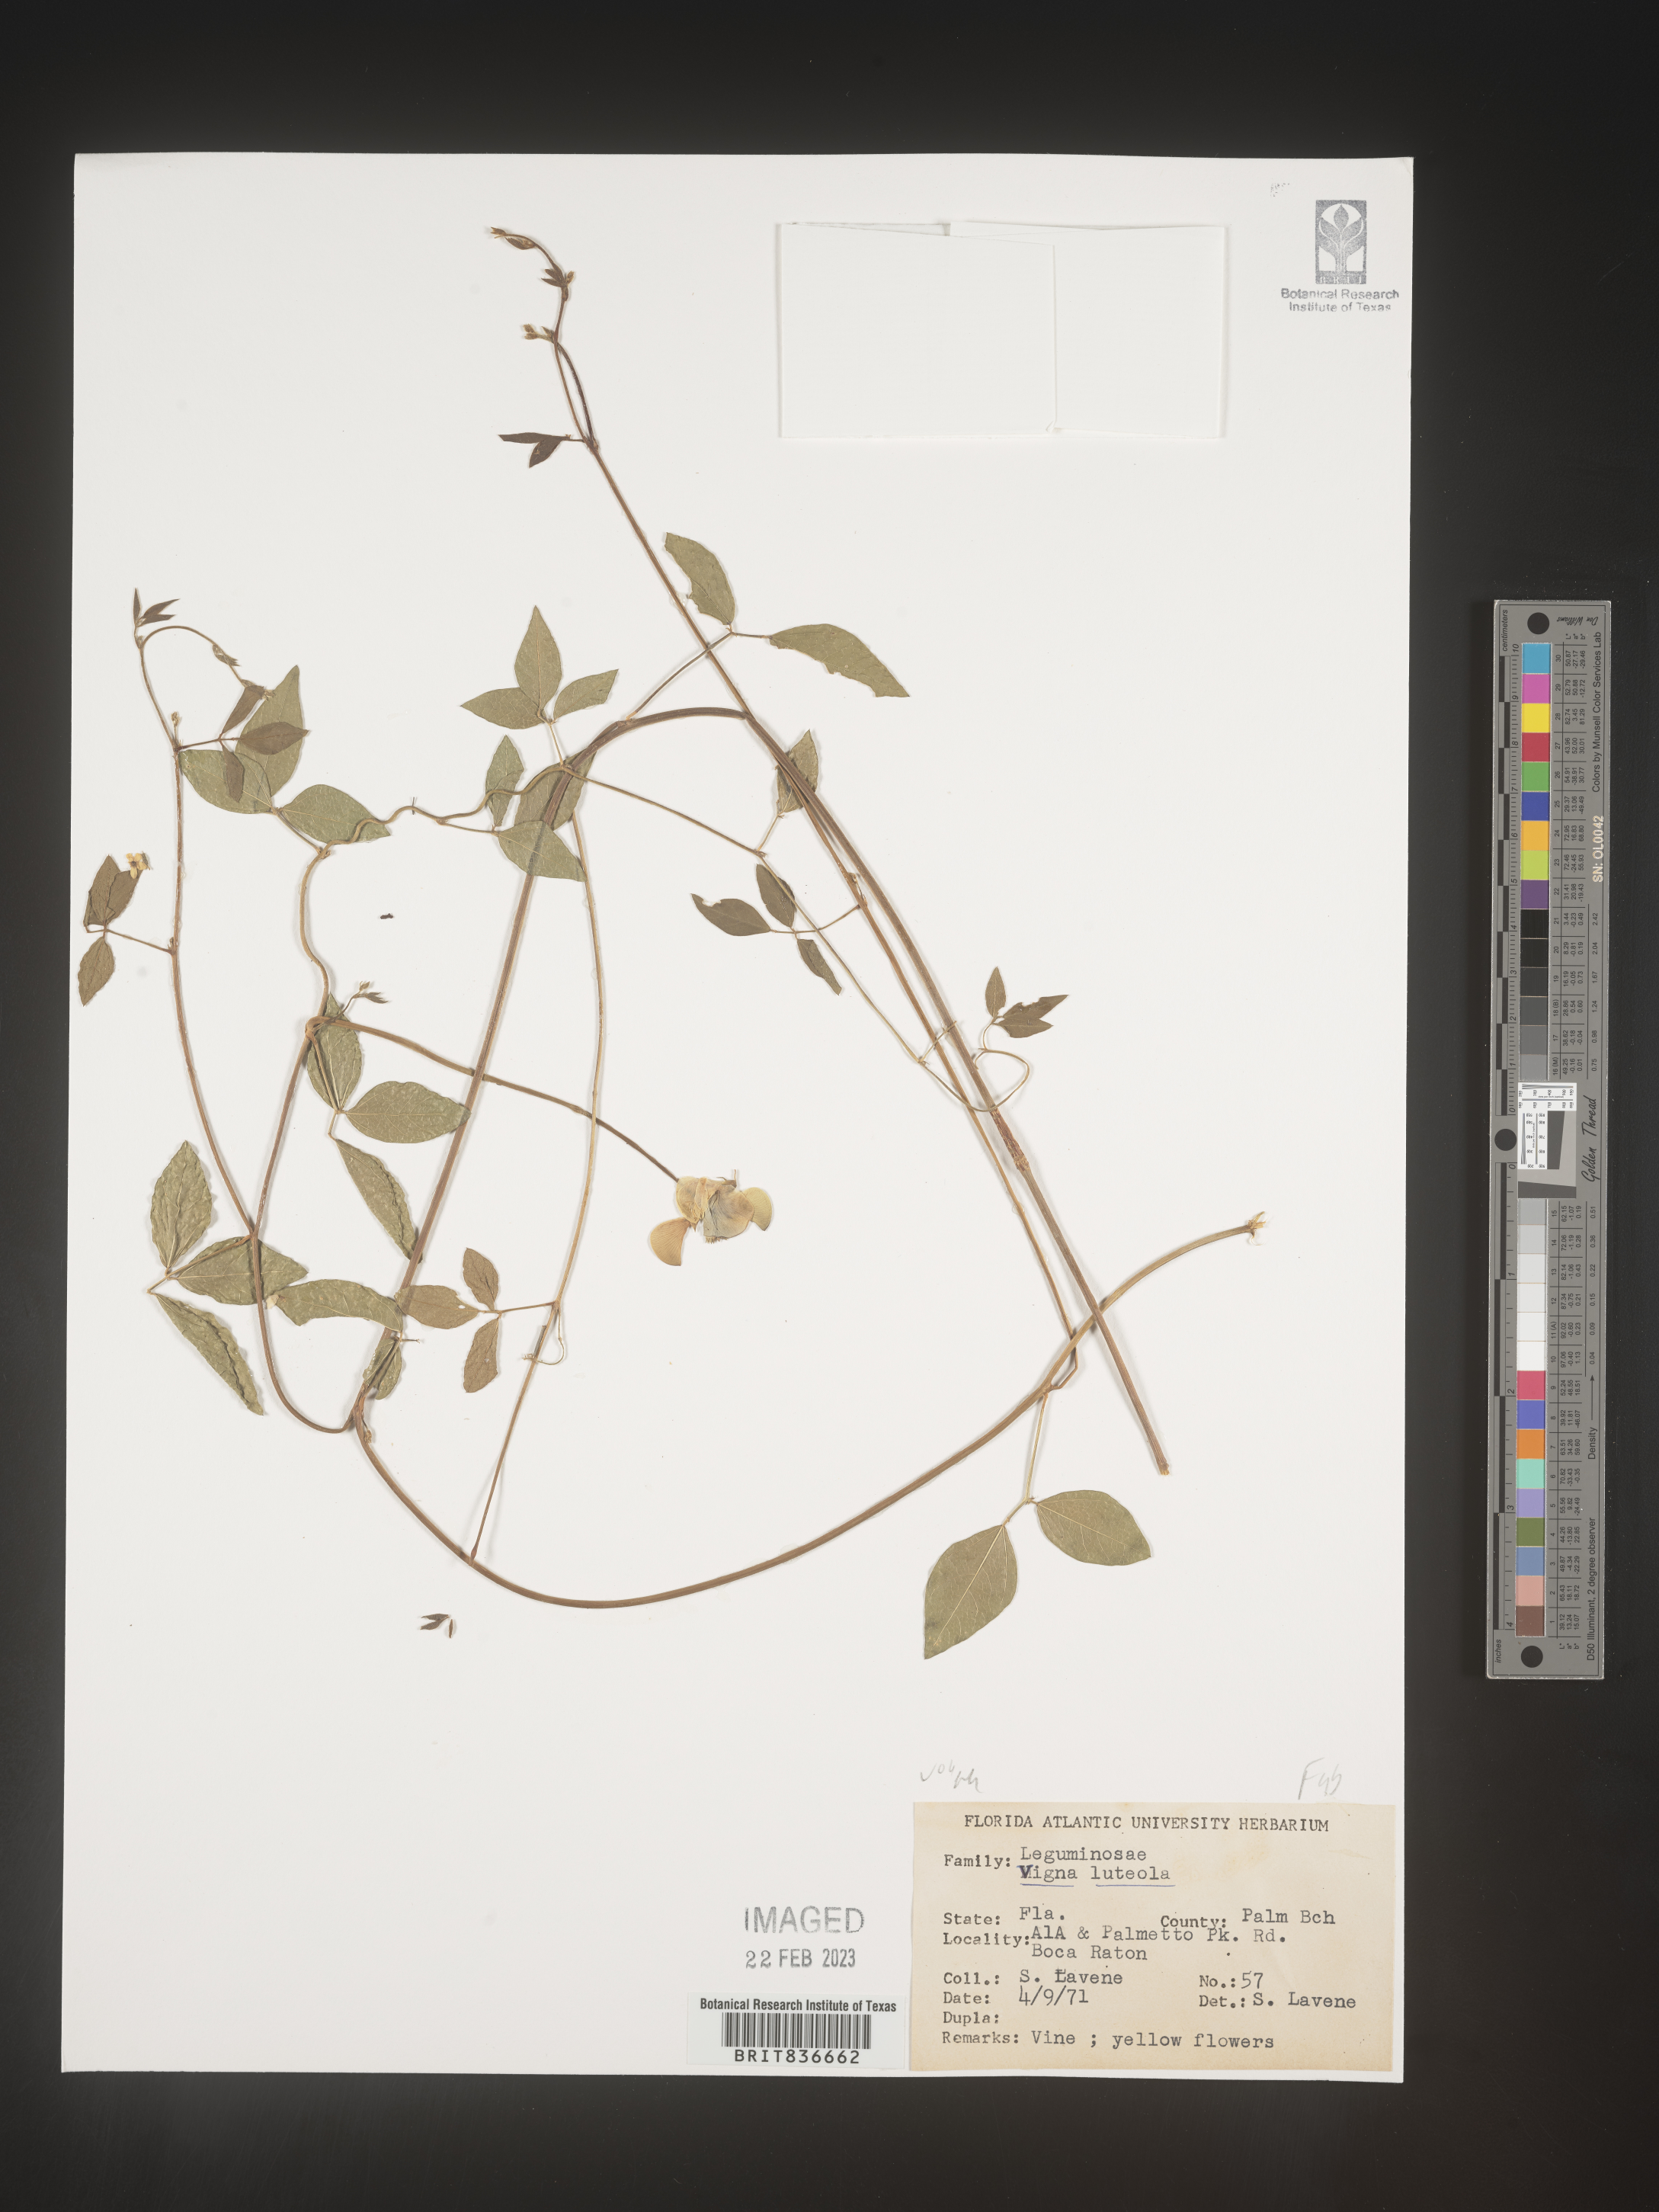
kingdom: Plantae
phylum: Tracheophyta
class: Magnoliopsida
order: Fabales
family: Fabaceae
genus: Vigna
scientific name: Vigna luteola
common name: Hairypod cowpea
